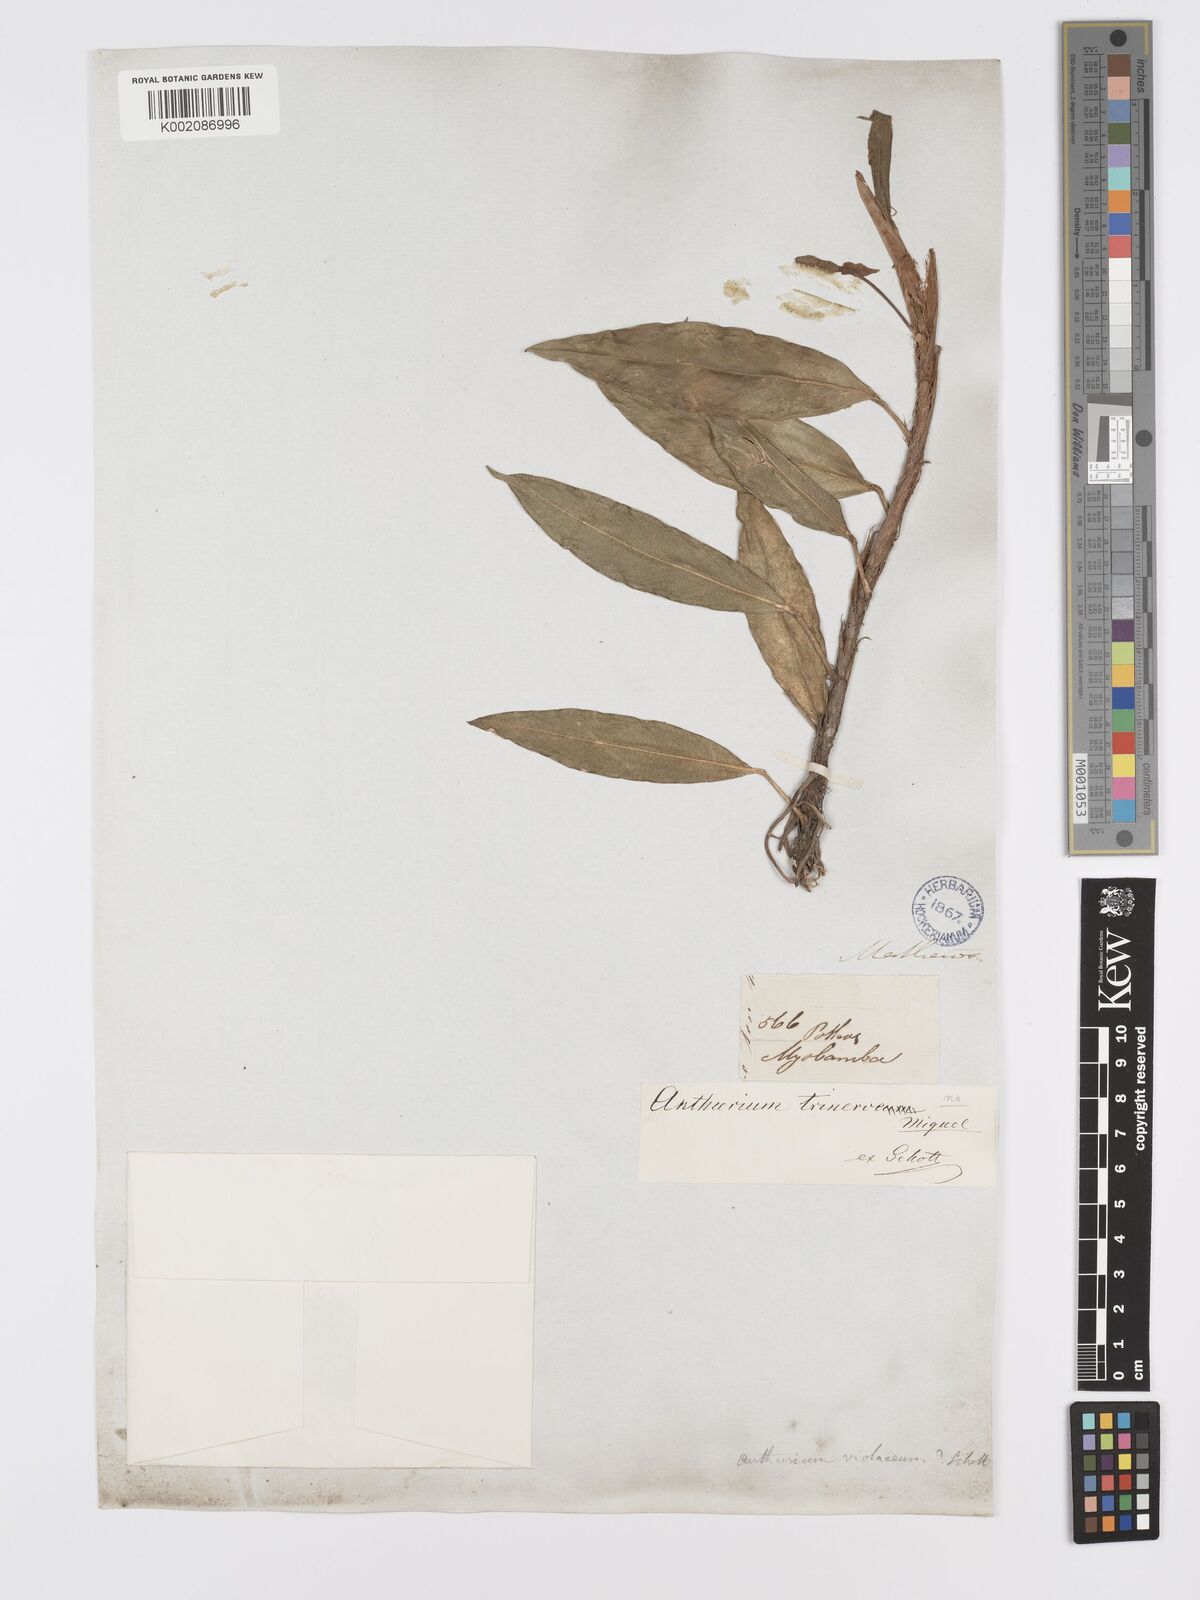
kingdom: Plantae
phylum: Tracheophyta
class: Liliopsida
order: Alismatales
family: Araceae
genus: Anthurium
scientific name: Anthurium scandens
